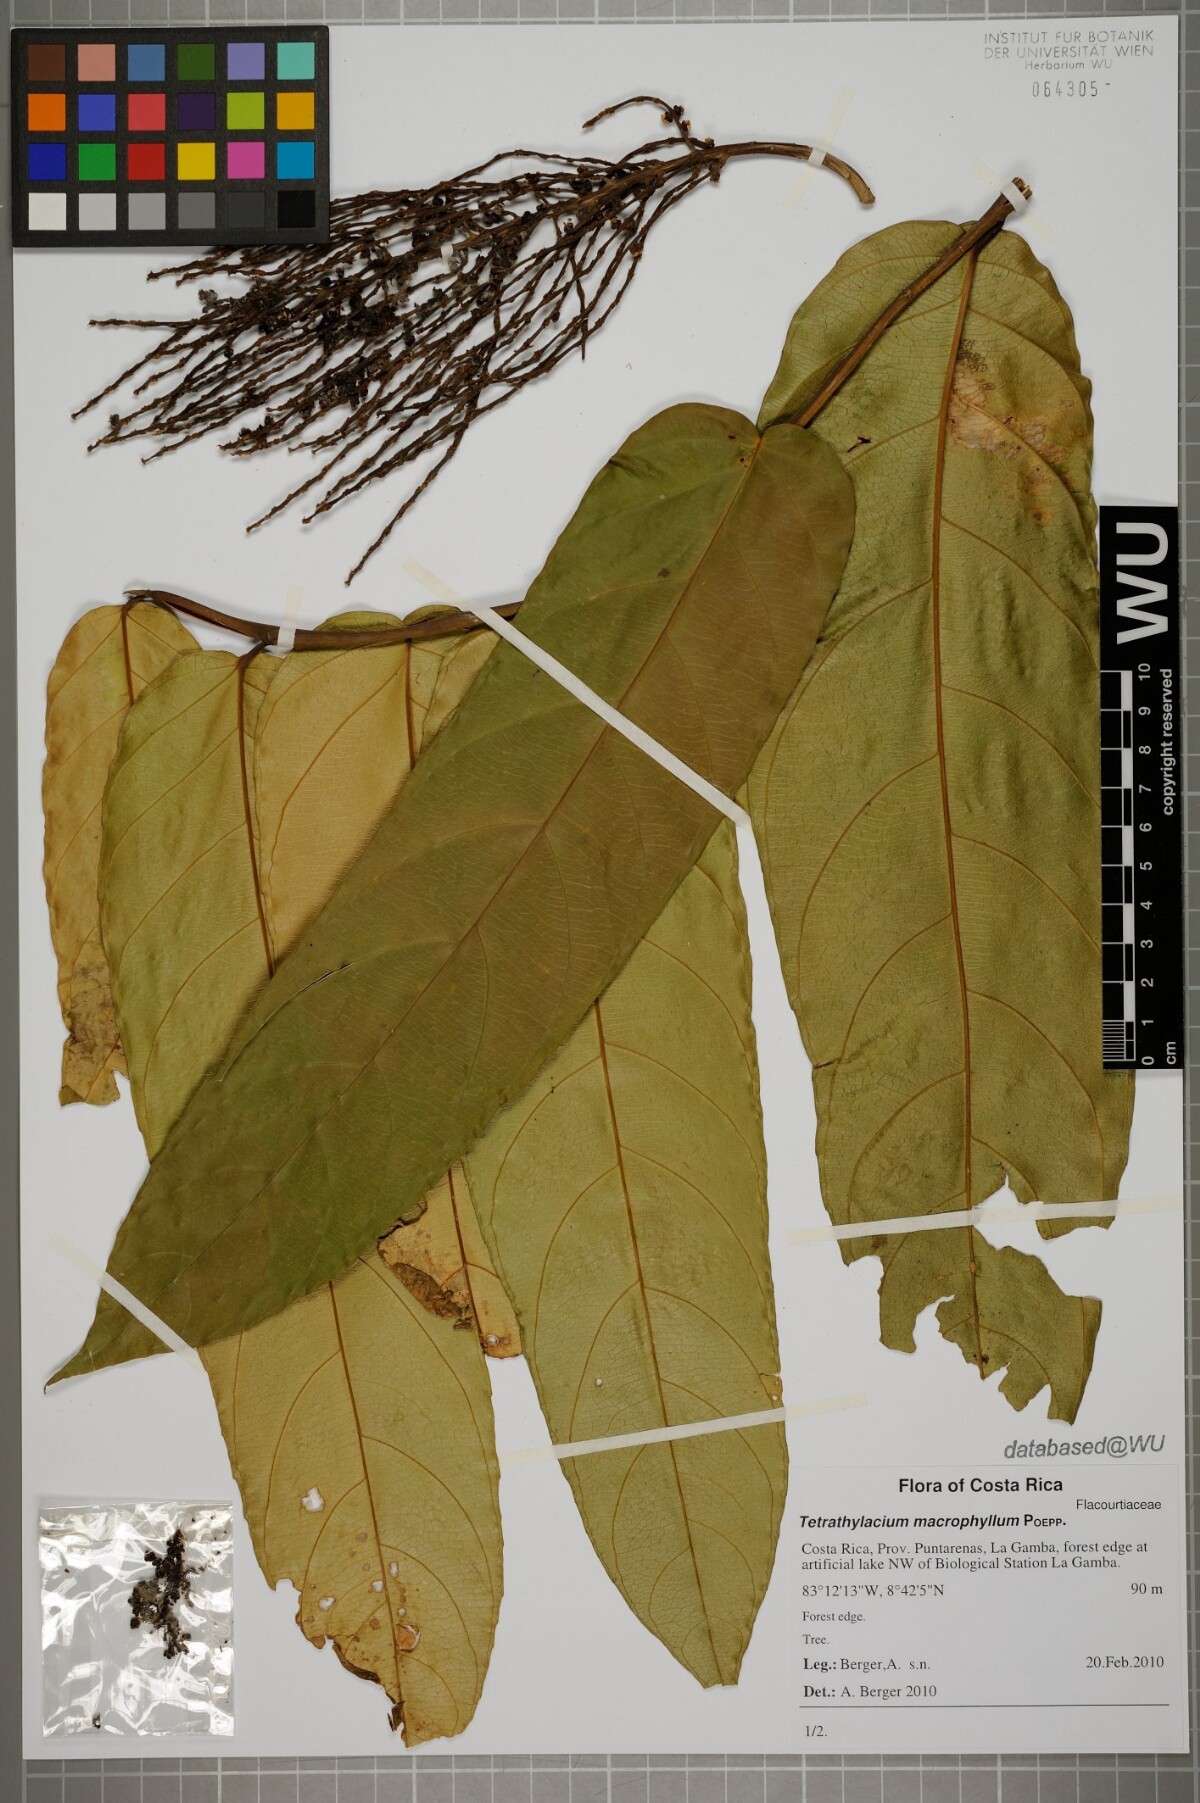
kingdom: Plantae
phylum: Tracheophyta
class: Magnoliopsida
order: Malpighiales
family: Salicaceae
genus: Tetrathylacium
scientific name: Tetrathylacium macrophyllum
